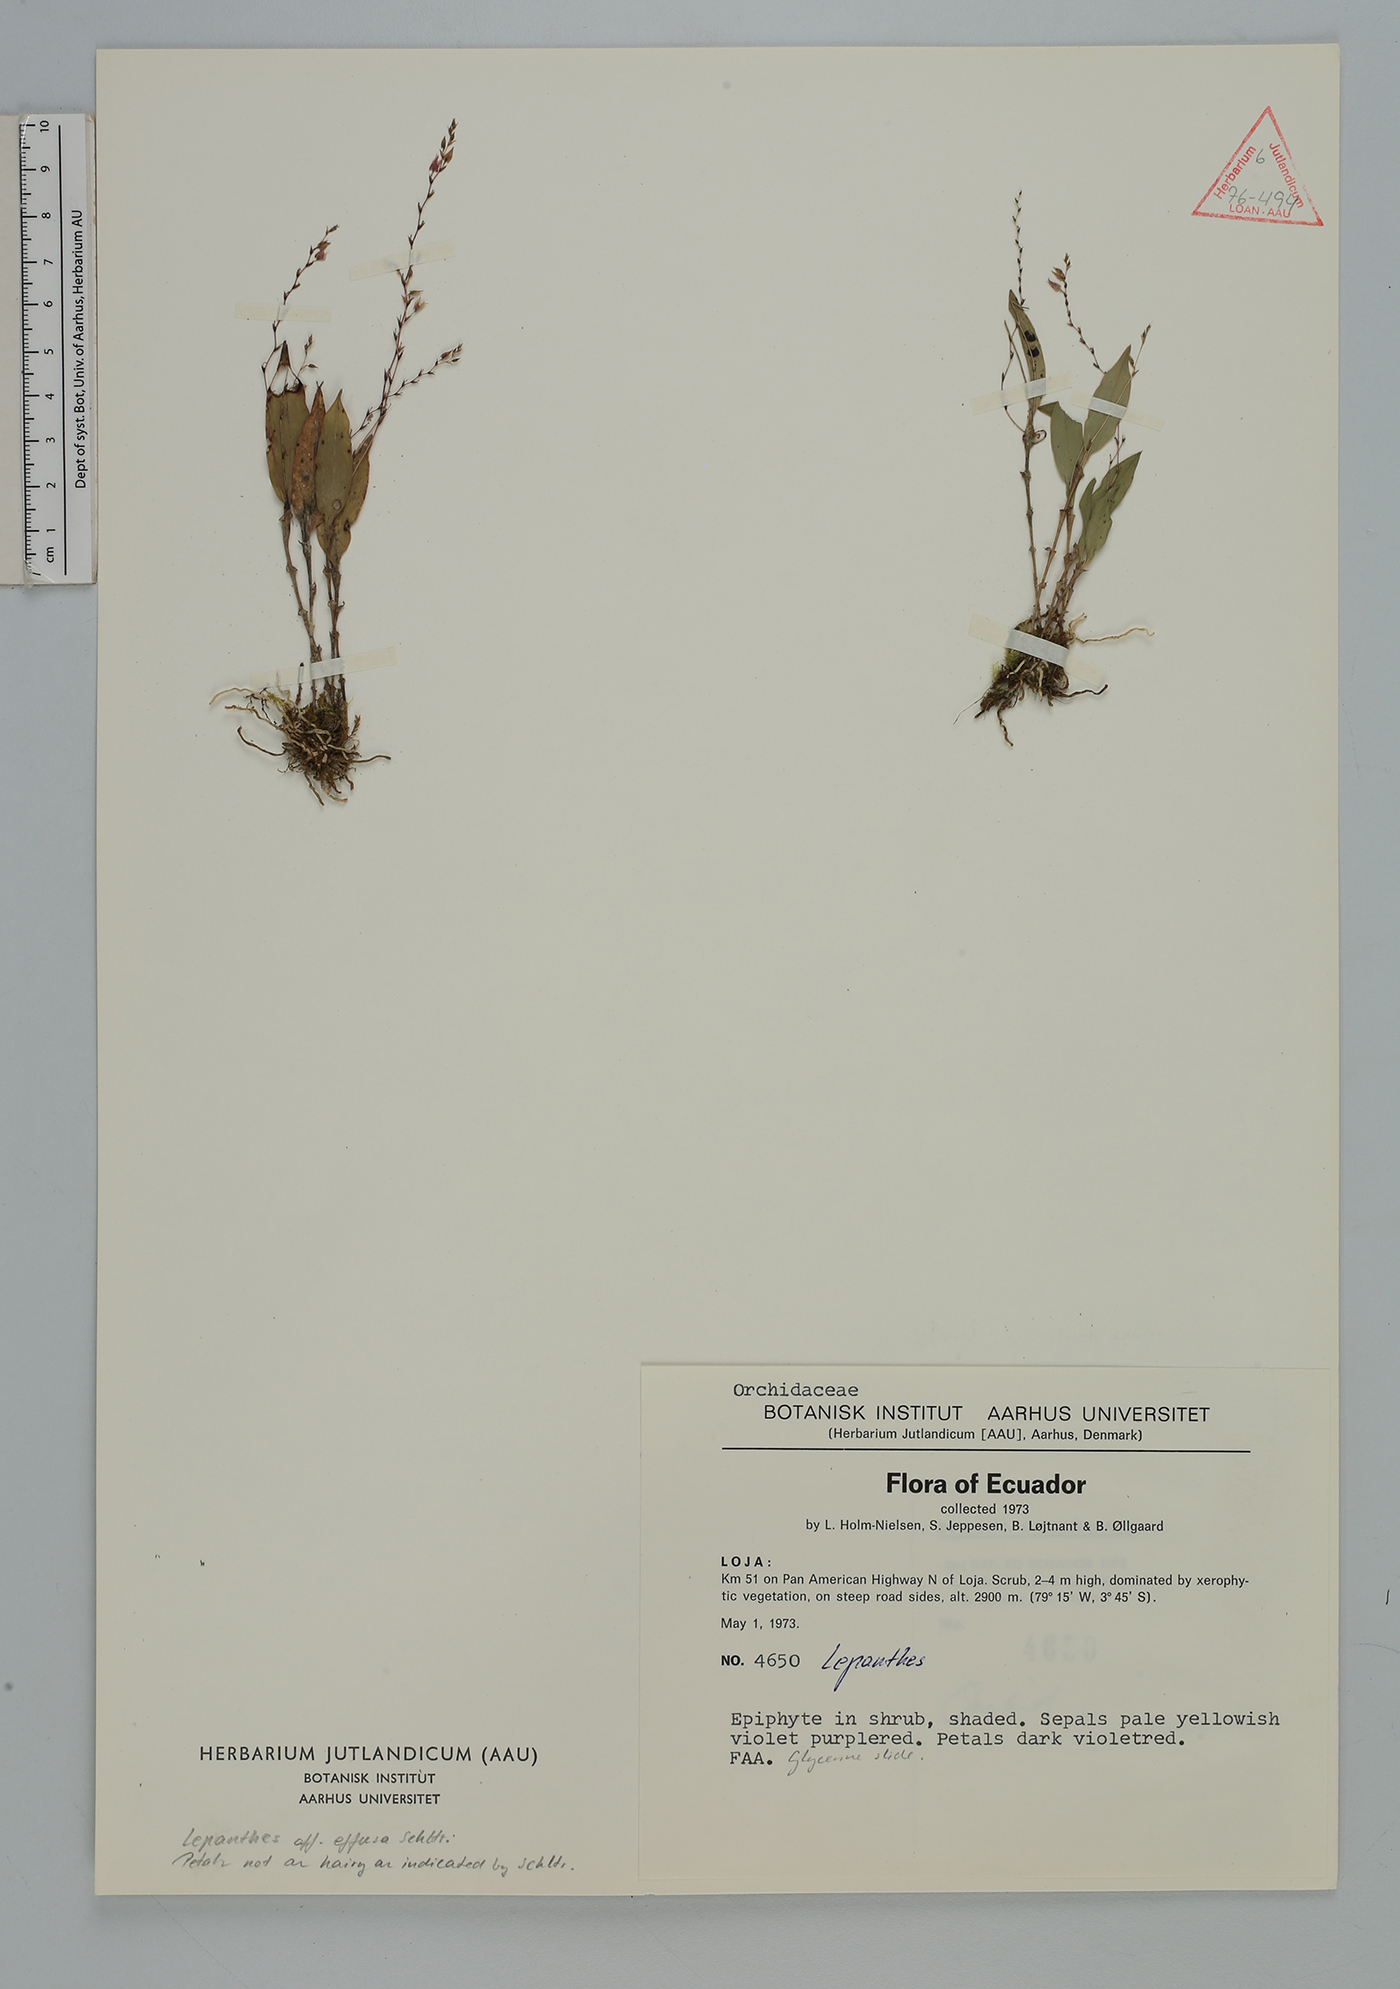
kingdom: Plantae
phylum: Tracheophyta
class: Liliopsida
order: Asparagales
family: Orchidaceae
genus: Lepanthes
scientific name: Lepanthes
